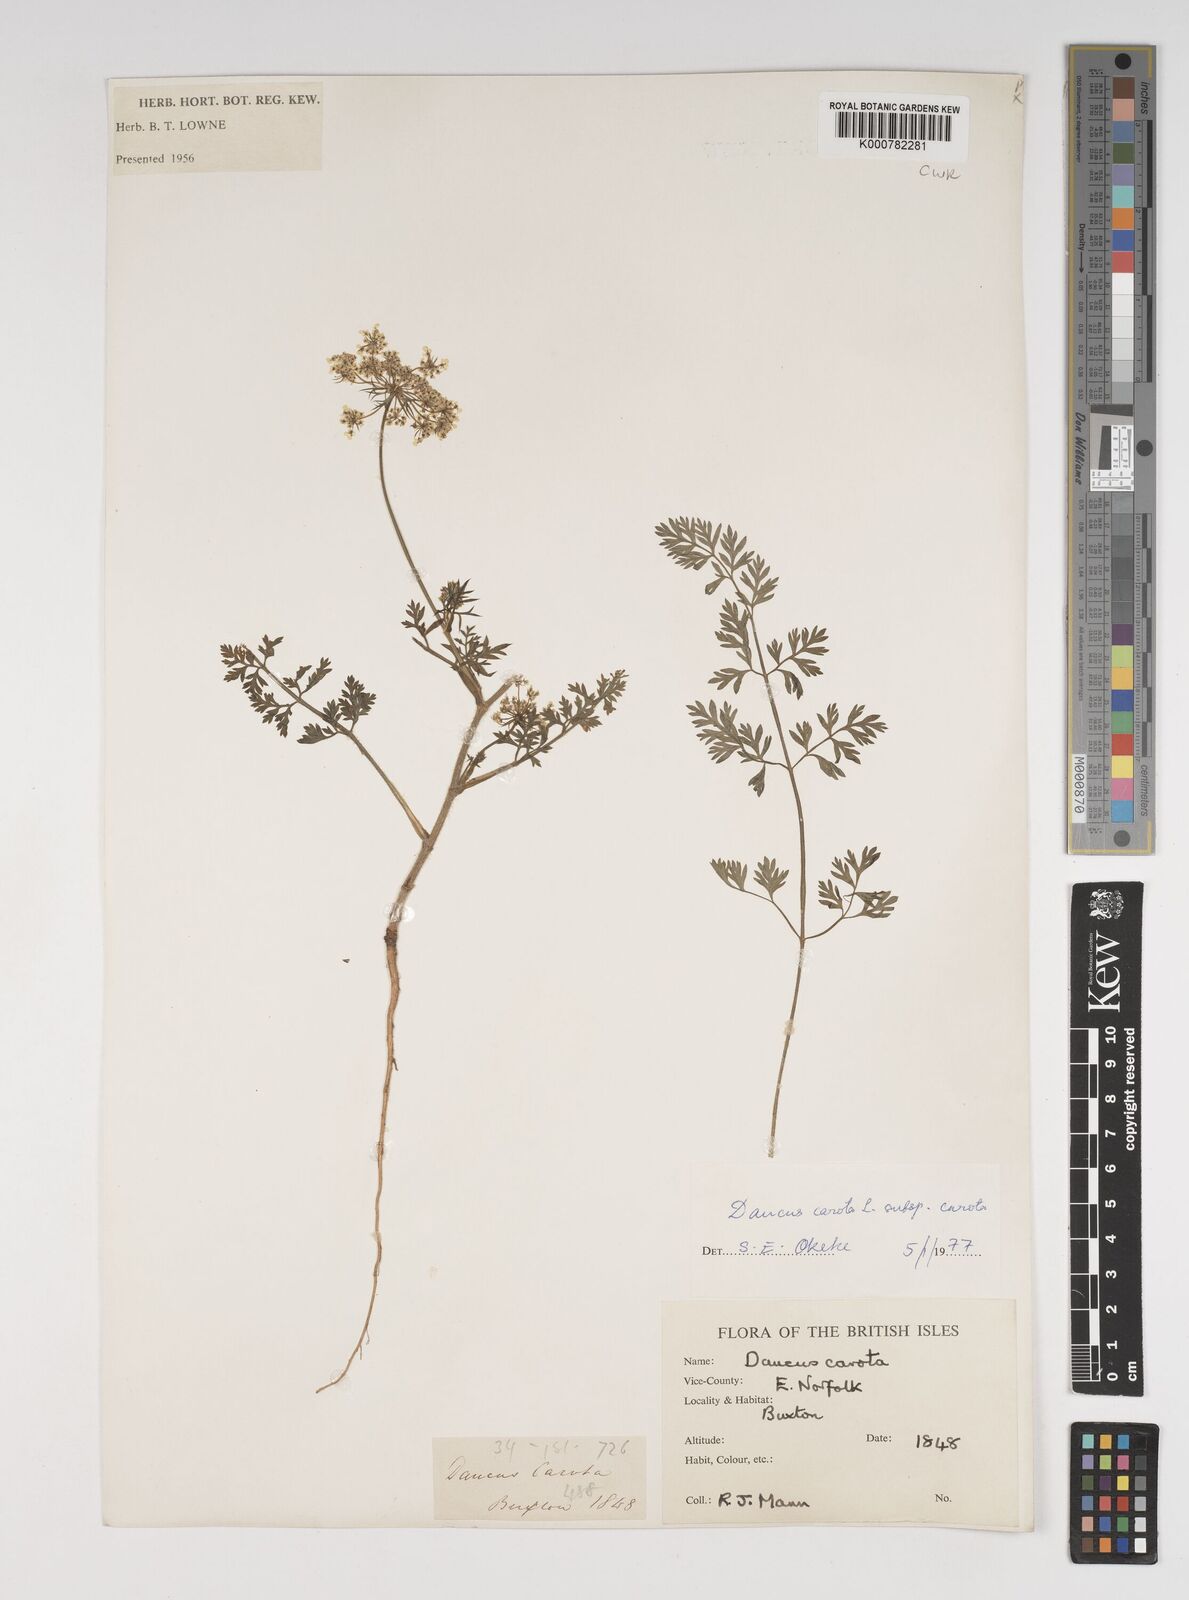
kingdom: Plantae
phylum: Tracheophyta
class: Magnoliopsida
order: Apiales
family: Apiaceae
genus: Daucus
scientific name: Daucus carota
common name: Wild carrot
